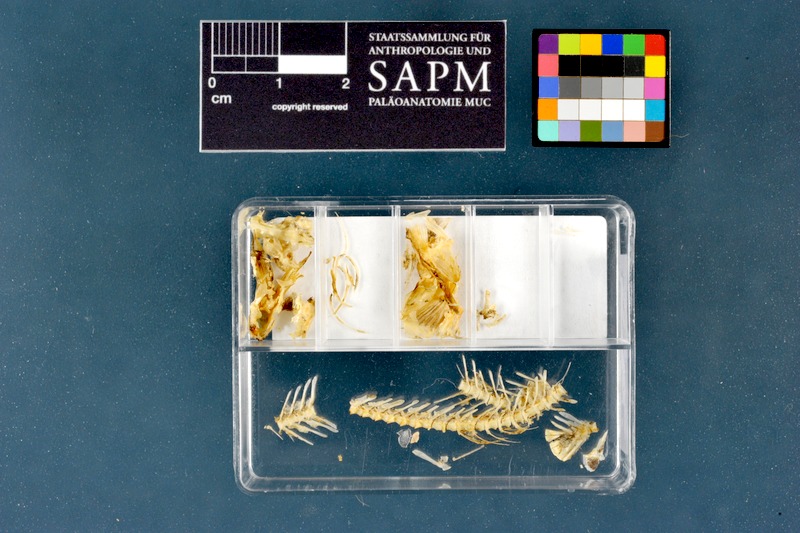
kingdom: Animalia
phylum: Chordata
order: Cypriniformes
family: Nemacheilidae
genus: Barbatula
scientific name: Barbatula barbatula
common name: Stone loach
